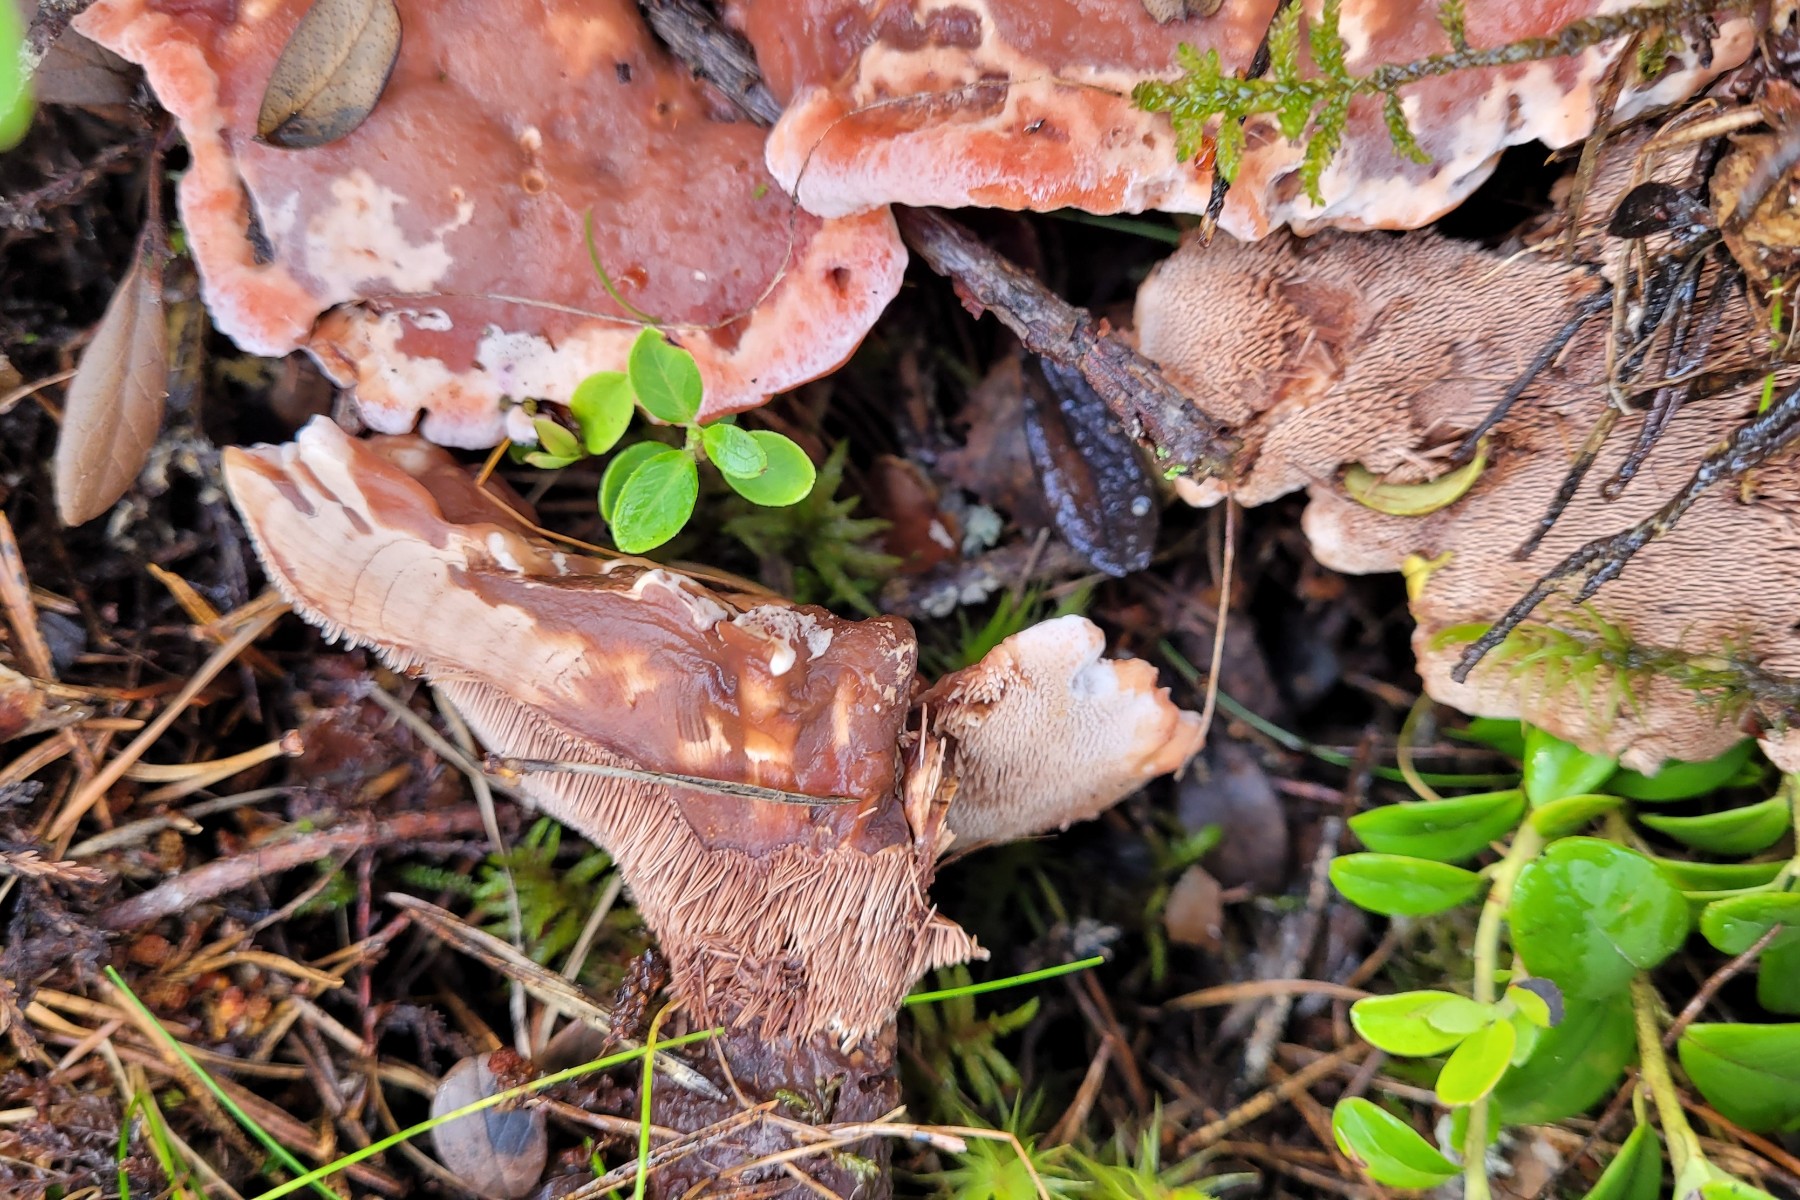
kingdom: Fungi
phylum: Basidiomycota
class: Agaricomycetes
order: Thelephorales
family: Bankeraceae
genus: Hydnellum
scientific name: Hydnellum peckii
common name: bitter korkpigsvamp
